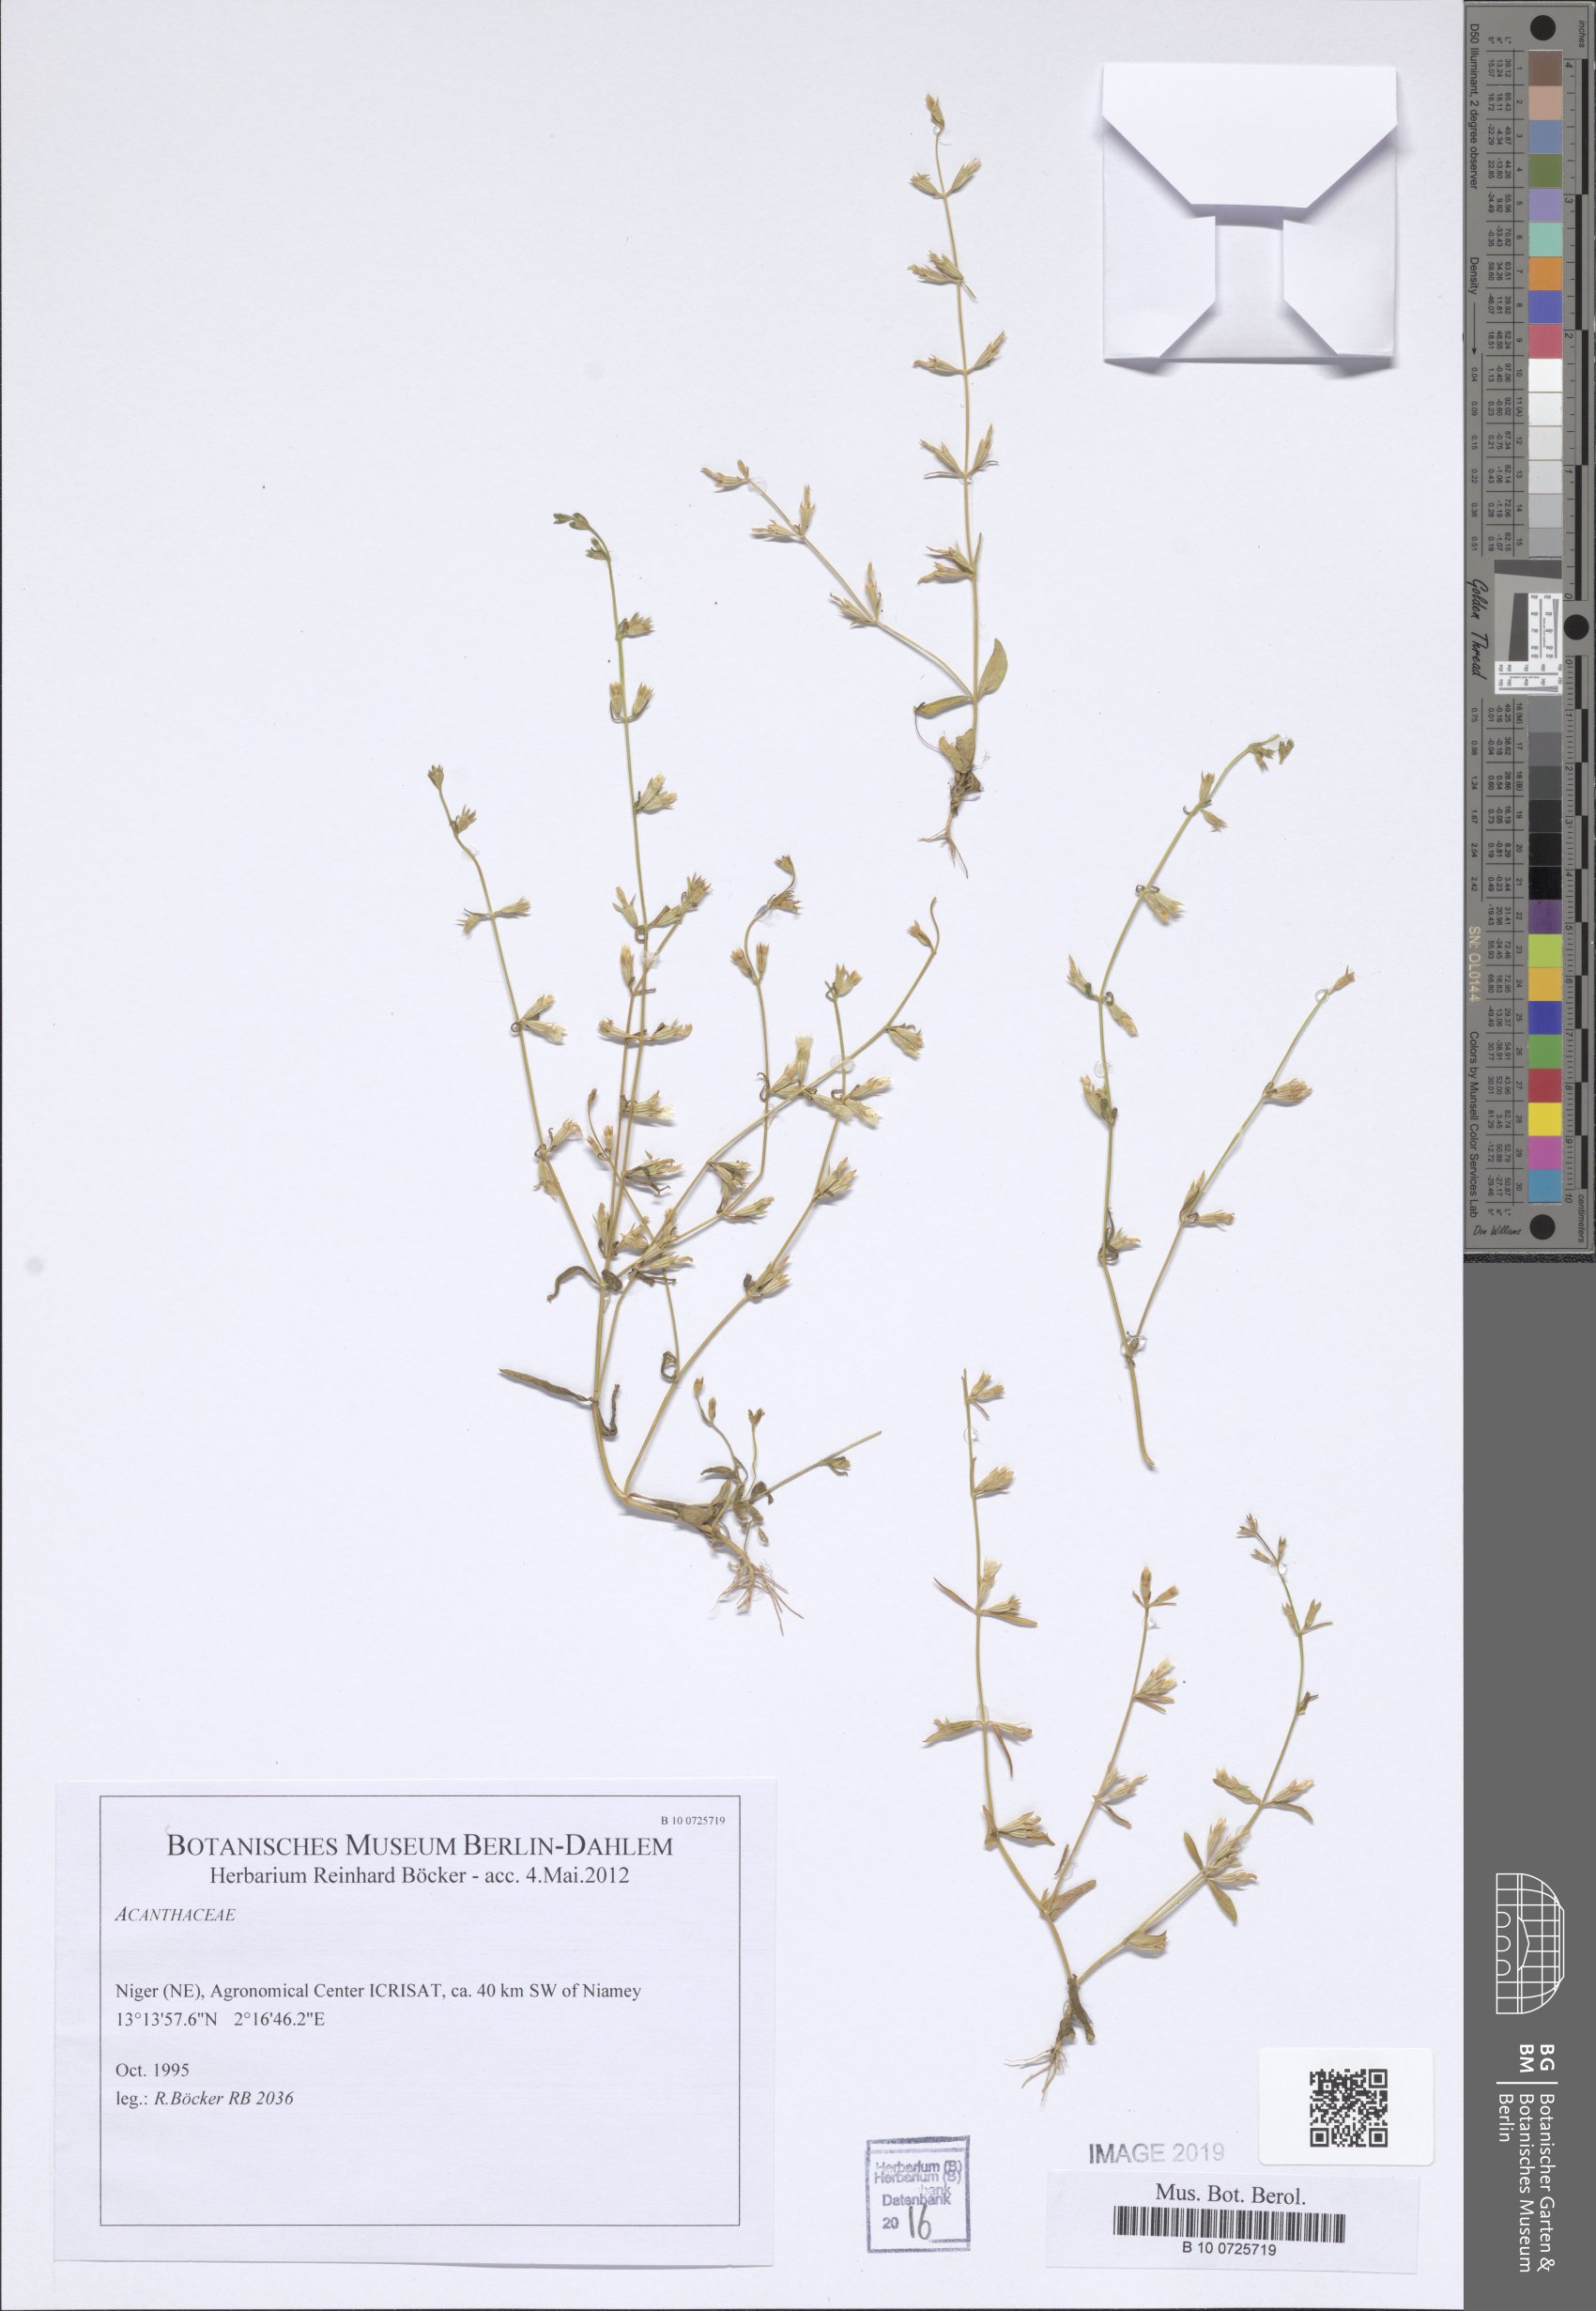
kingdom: Plantae
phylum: Tracheophyta
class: Magnoliopsida
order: Lamiales
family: Acanthaceae
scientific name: Acanthaceae
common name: Acanthaceae
